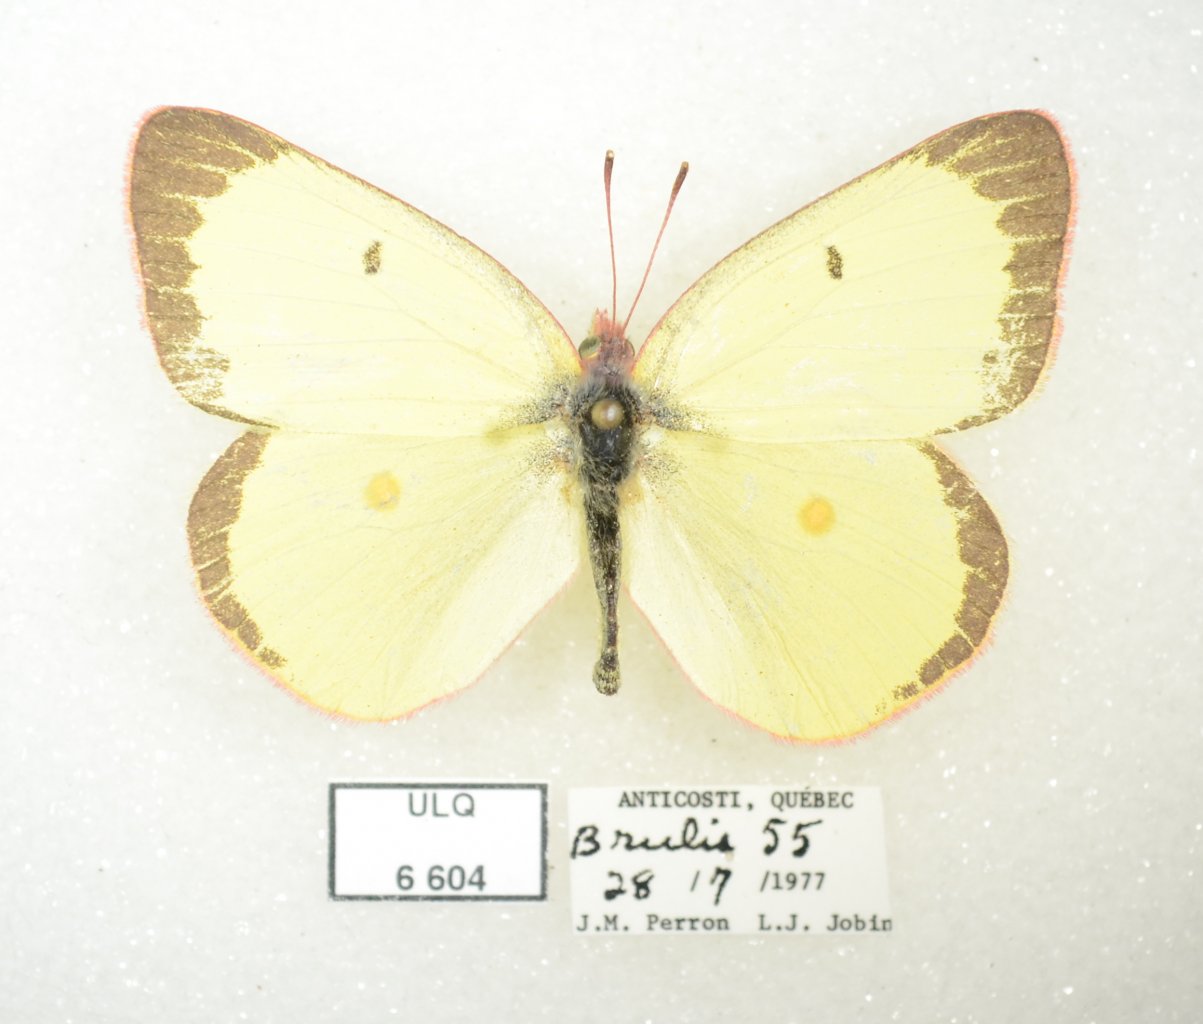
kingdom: Animalia
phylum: Arthropoda
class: Insecta
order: Lepidoptera
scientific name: Lepidoptera
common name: Butterflies
